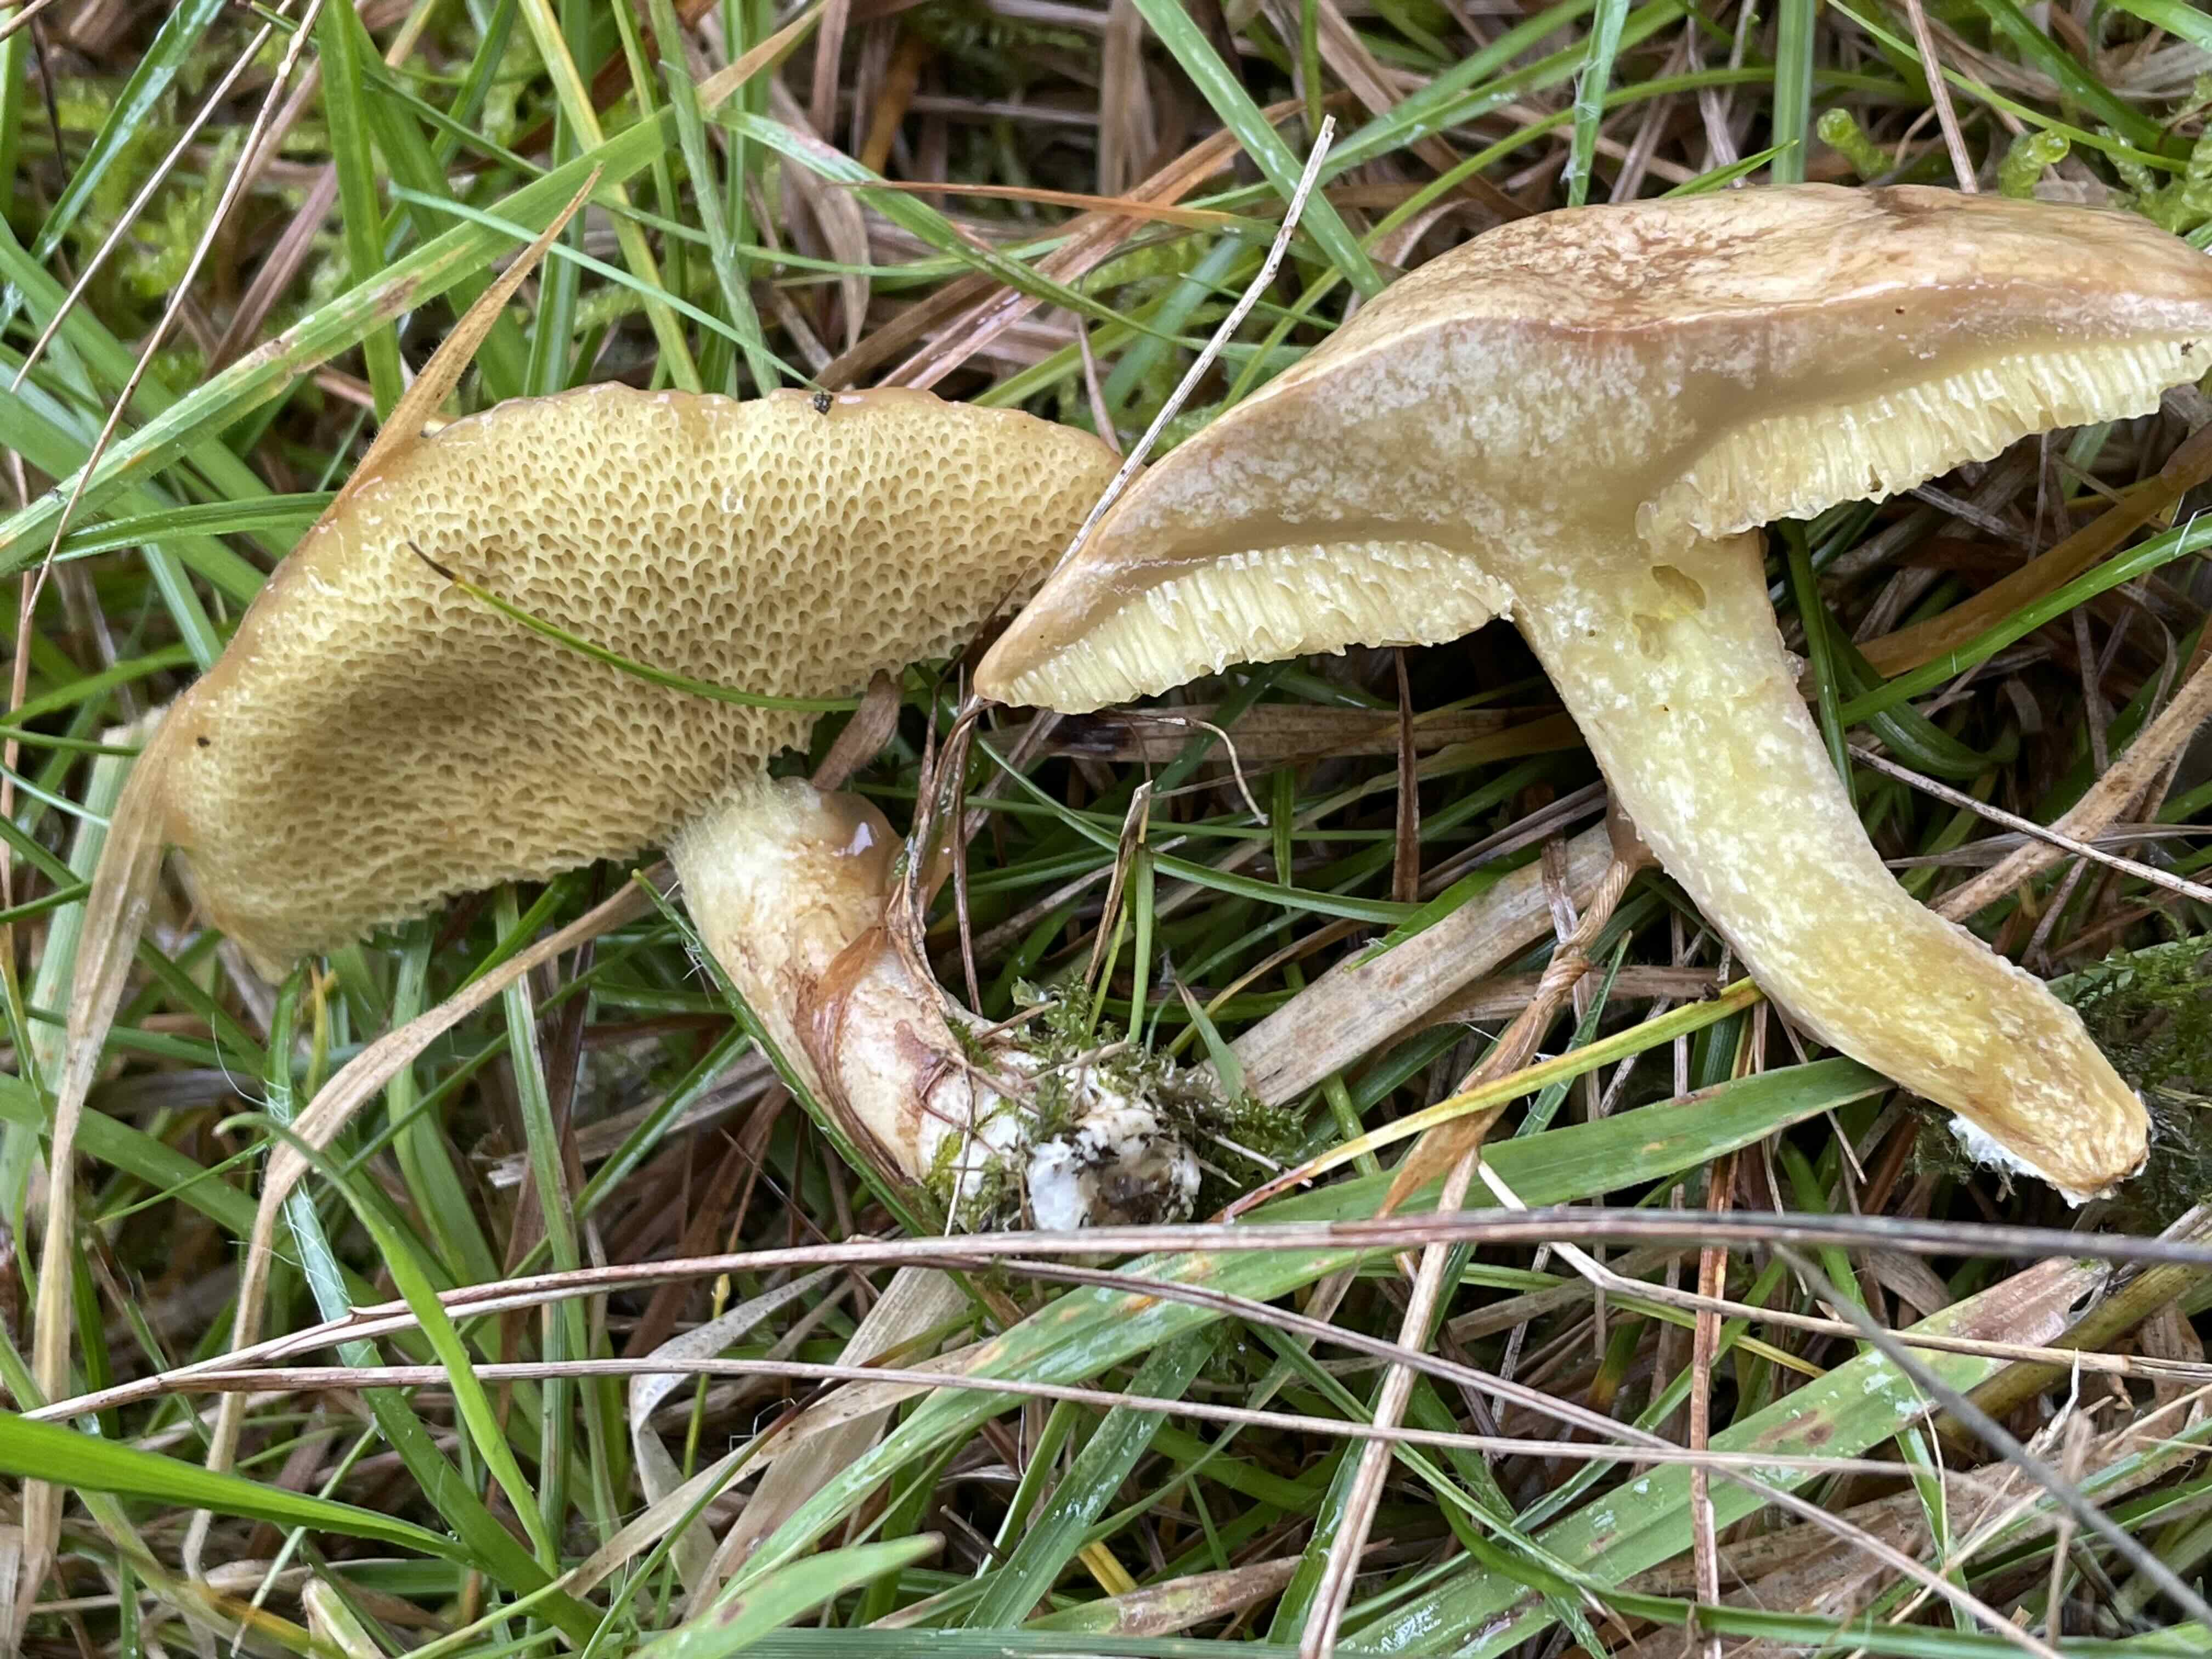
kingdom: Fungi
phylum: Basidiomycota
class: Agaricomycetes
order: Boletales
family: Suillaceae
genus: Suillus
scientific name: Suillus flavidus
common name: mose-slimrørhat
